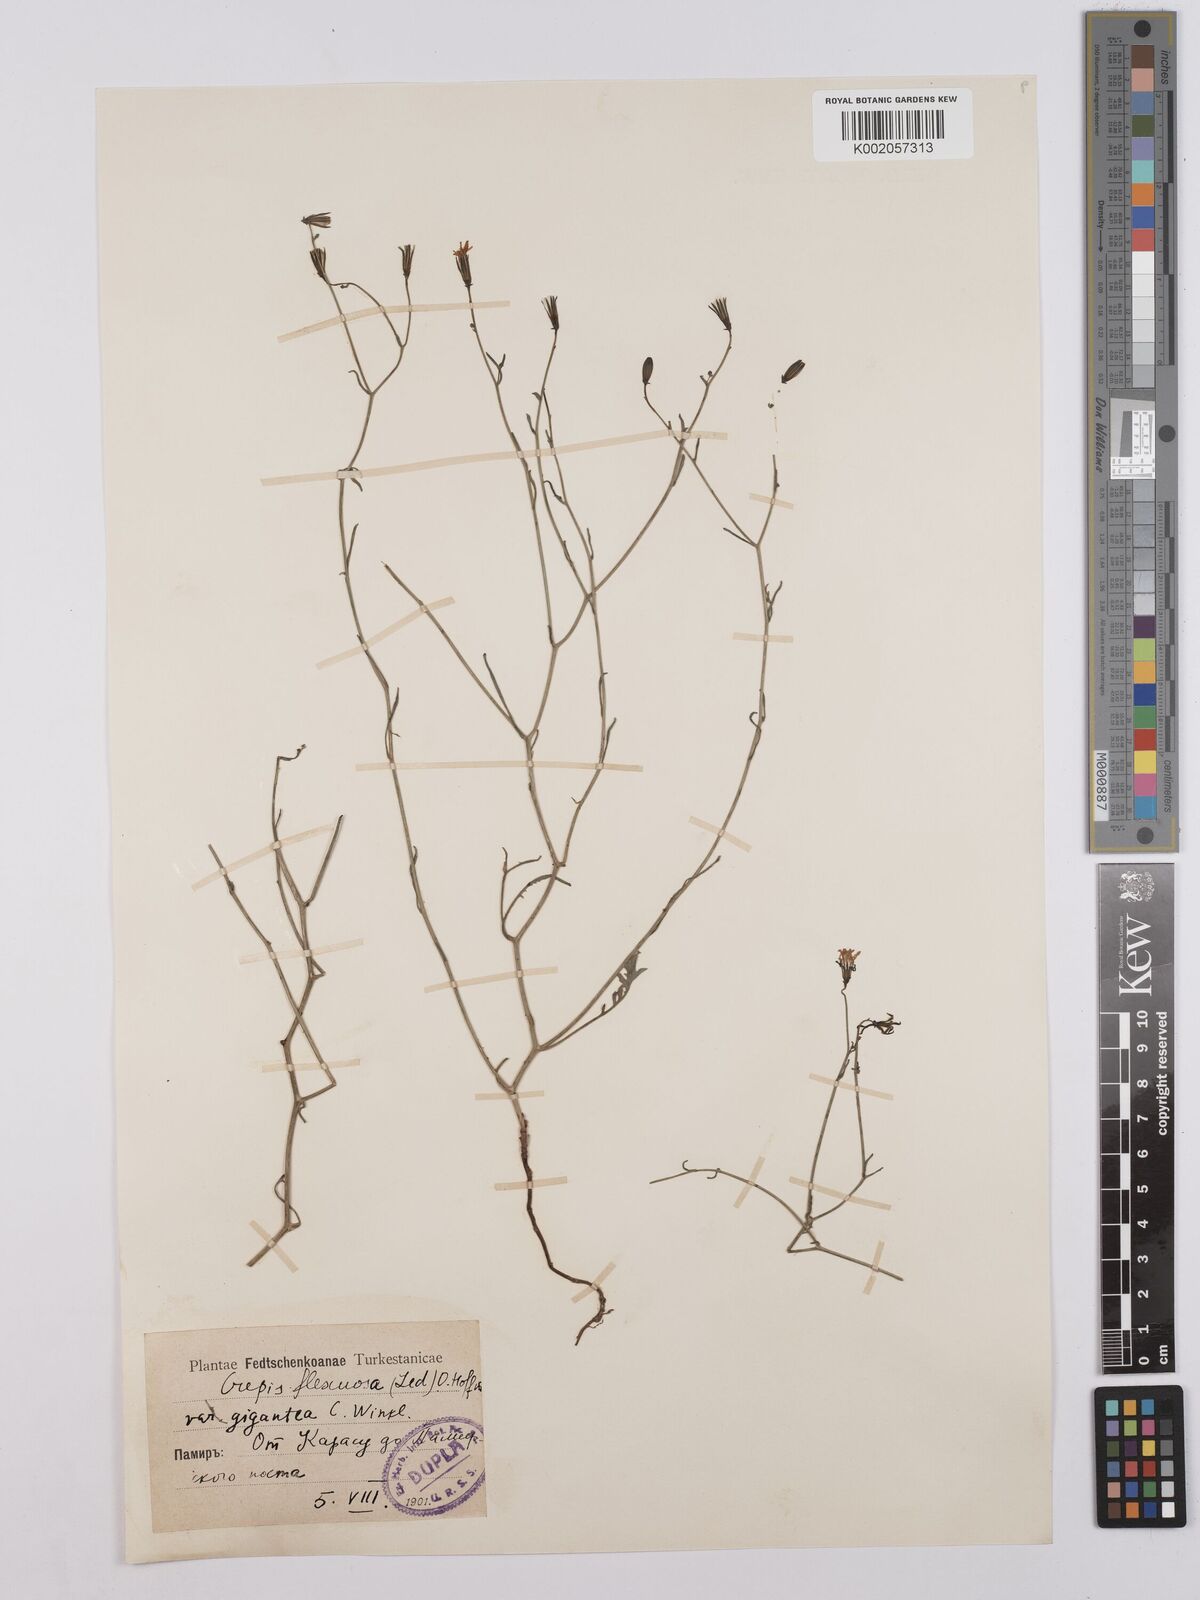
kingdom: Plantae
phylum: Tracheophyta
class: Magnoliopsida
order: Asterales
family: Asteraceae
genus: Askellia
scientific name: Askellia flexuosa
